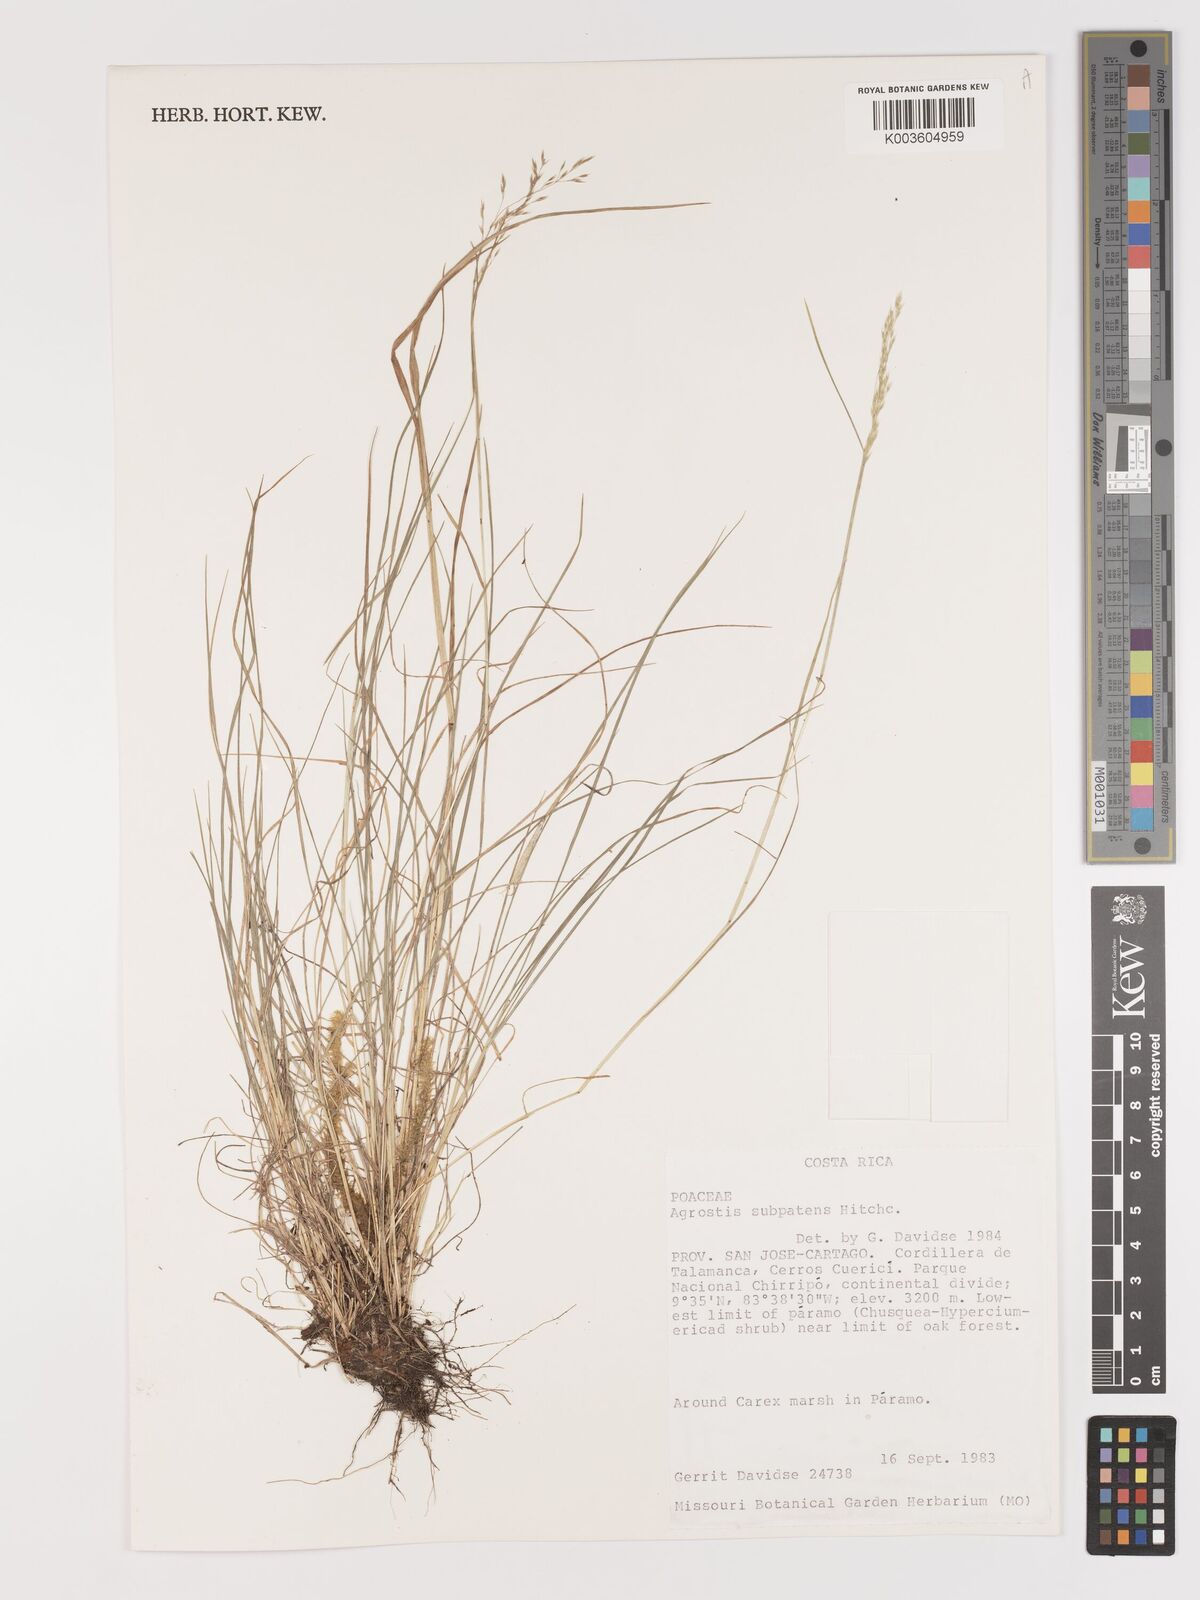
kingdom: Plantae
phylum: Tracheophyta
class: Liliopsida
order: Poales
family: Poaceae
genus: Agrostis
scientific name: Agrostis subpatens
